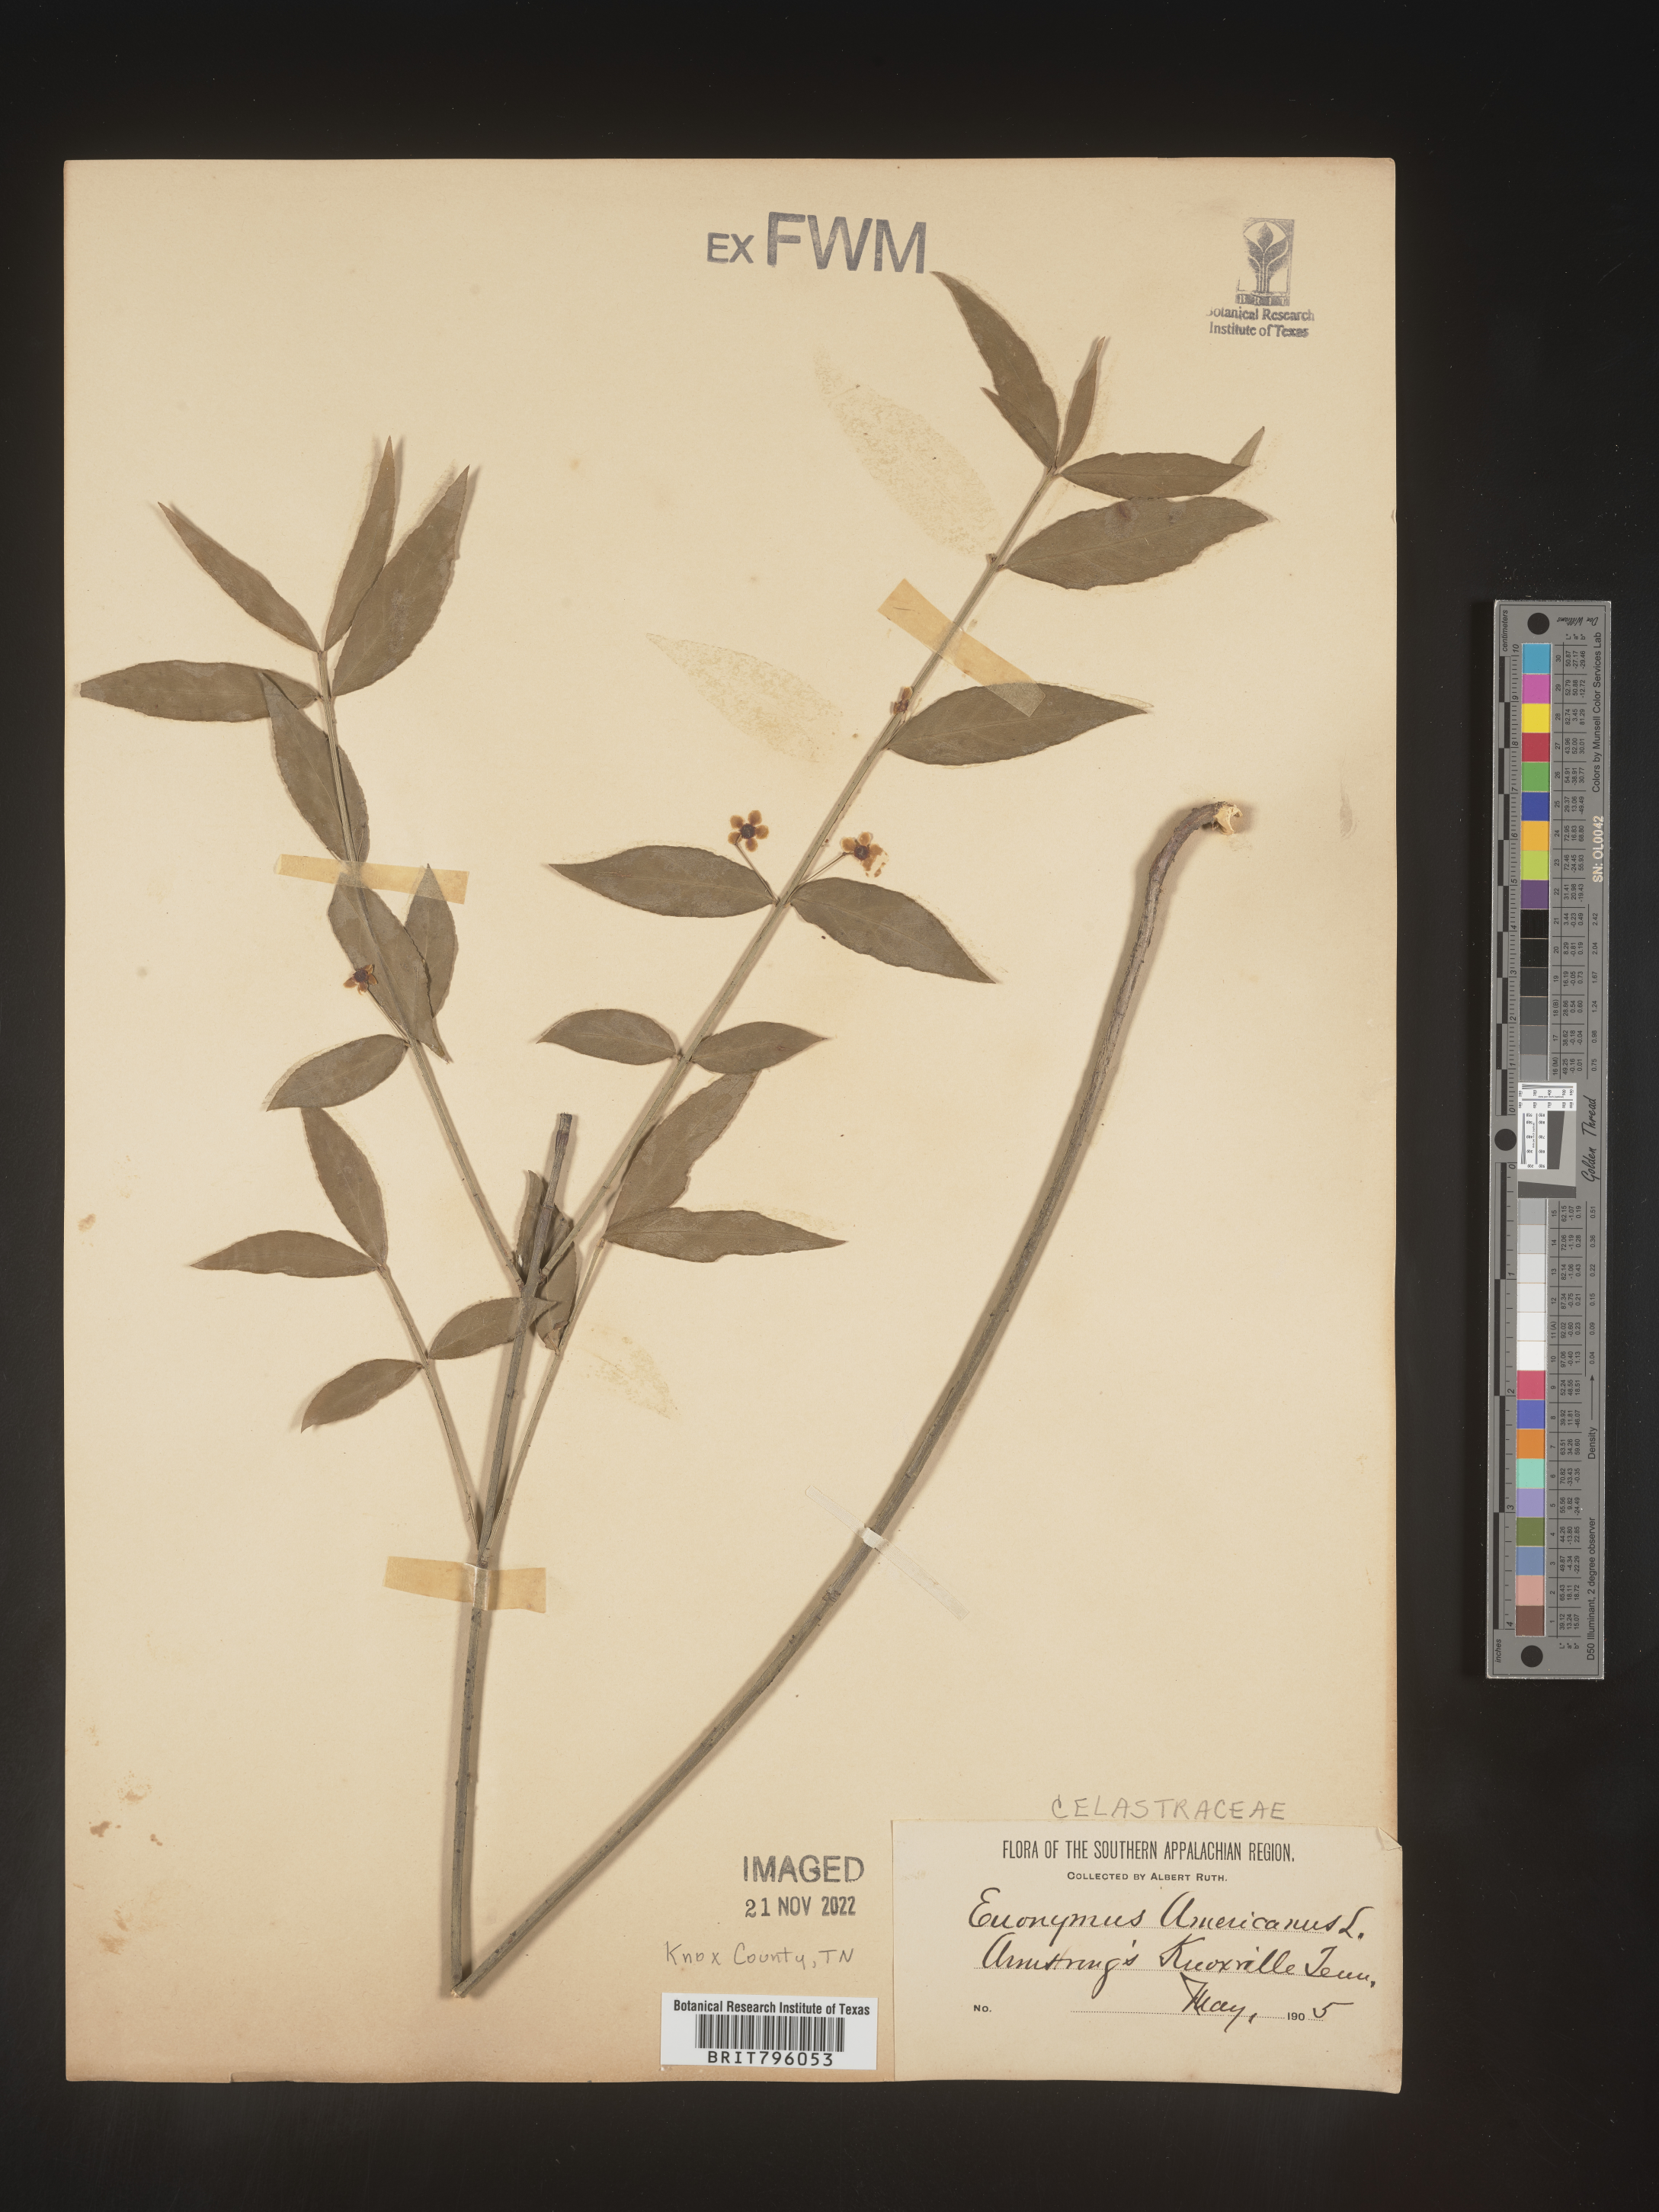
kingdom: Plantae
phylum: Tracheophyta
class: Magnoliopsida
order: Celastrales
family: Celastraceae
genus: Euonymus
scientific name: Euonymus americanus
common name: Bursting-heart
